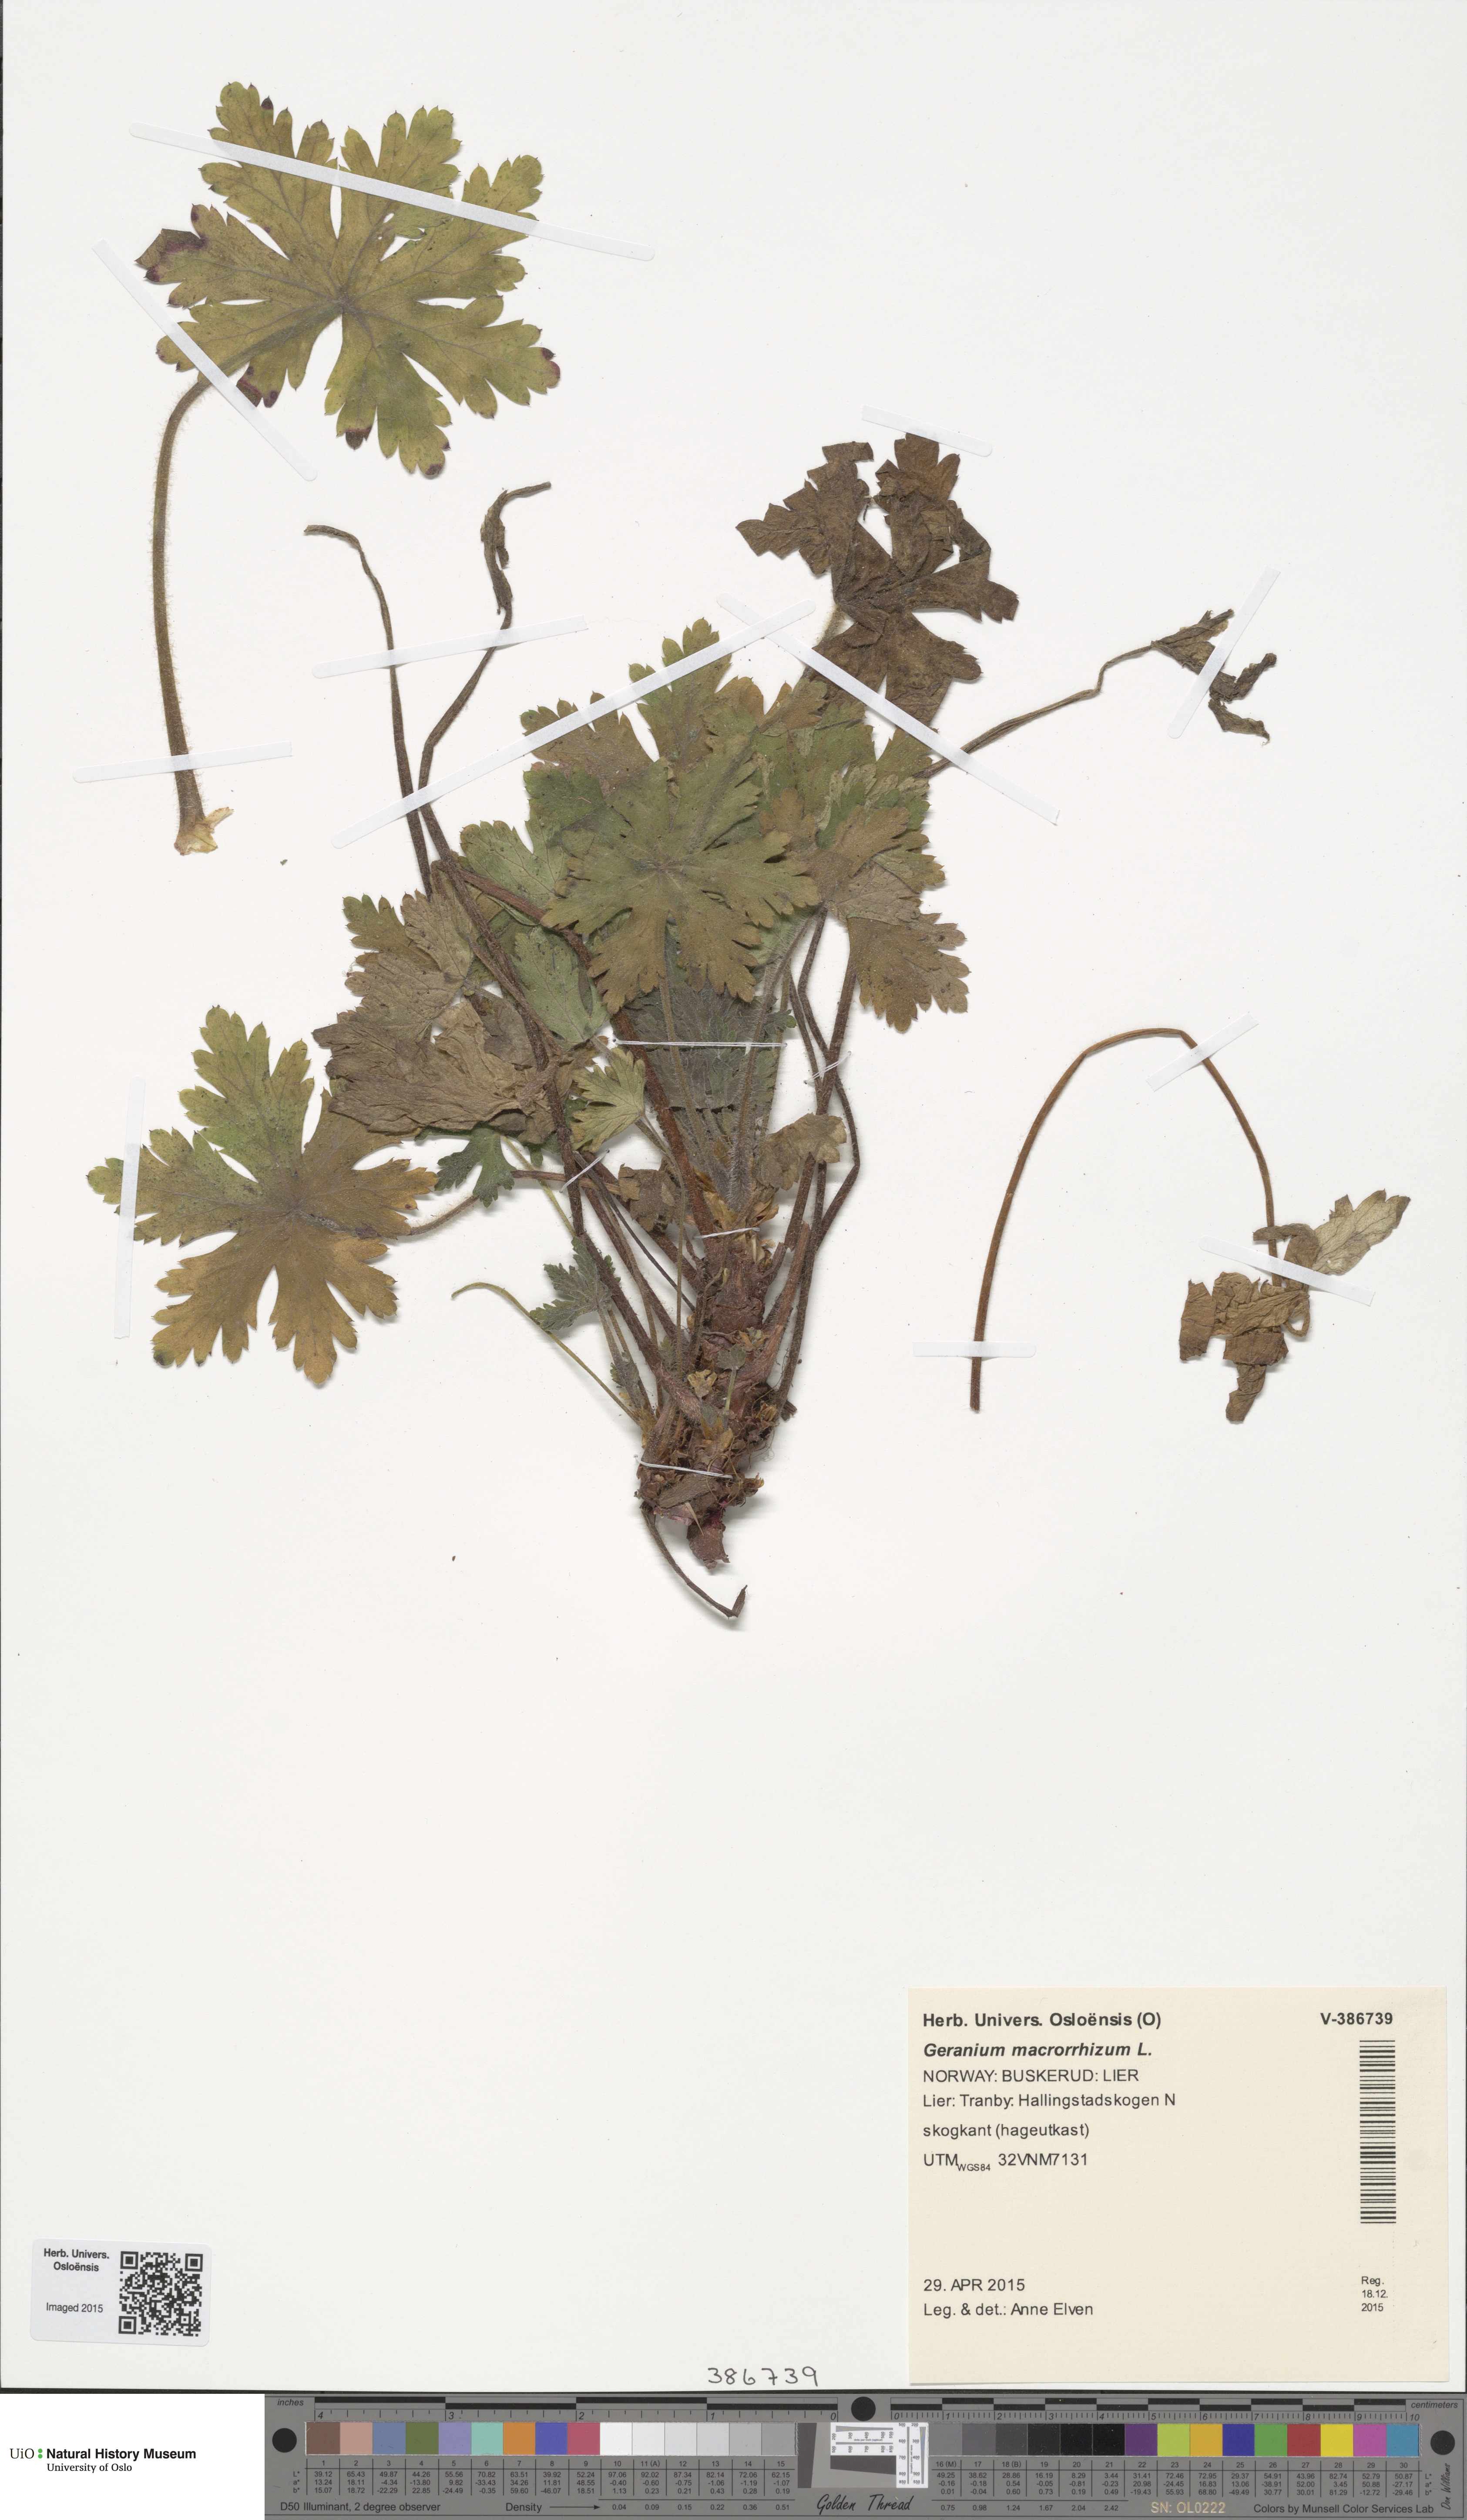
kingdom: Plantae
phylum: Tracheophyta
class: Magnoliopsida
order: Geraniales
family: Geraniaceae
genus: Geranium
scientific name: Geranium macrorrhizum
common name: Rock crane's-bill
